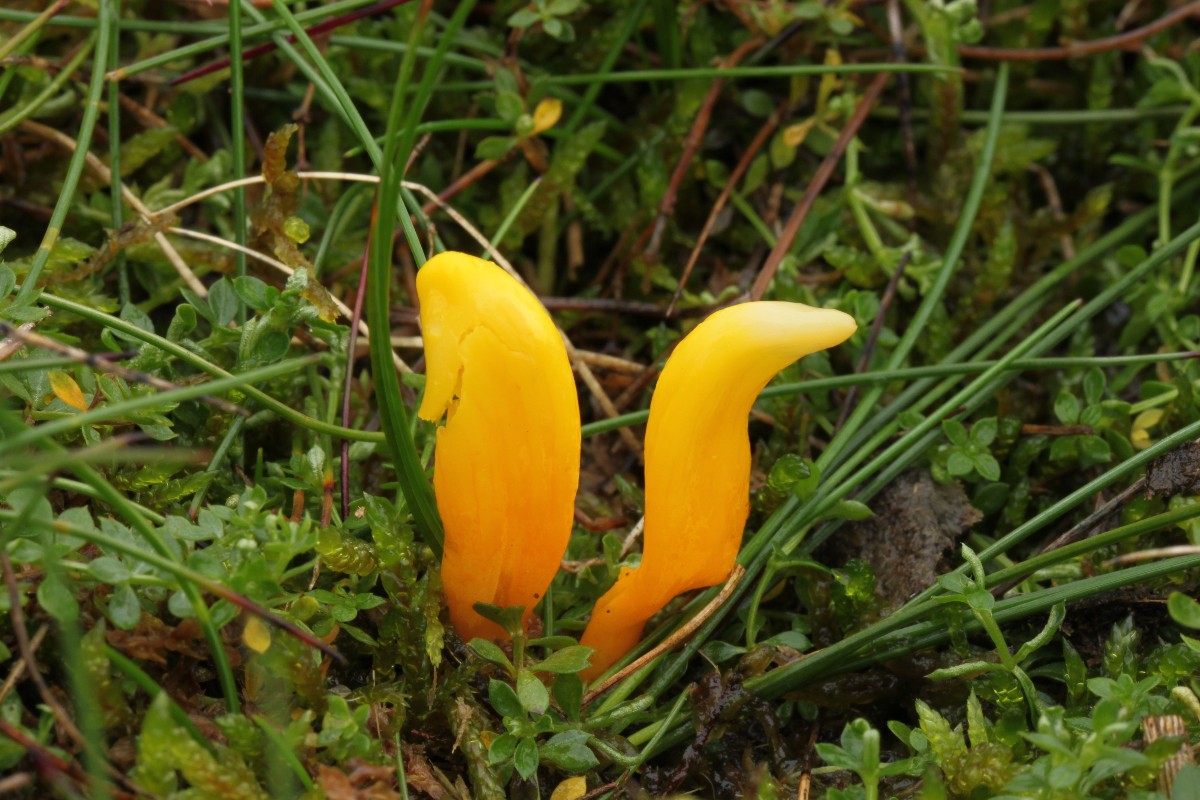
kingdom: Fungi
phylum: Basidiomycota
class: Agaricomycetes
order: Agaricales
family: Clavariaceae
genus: Clavulinopsis
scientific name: Clavulinopsis
